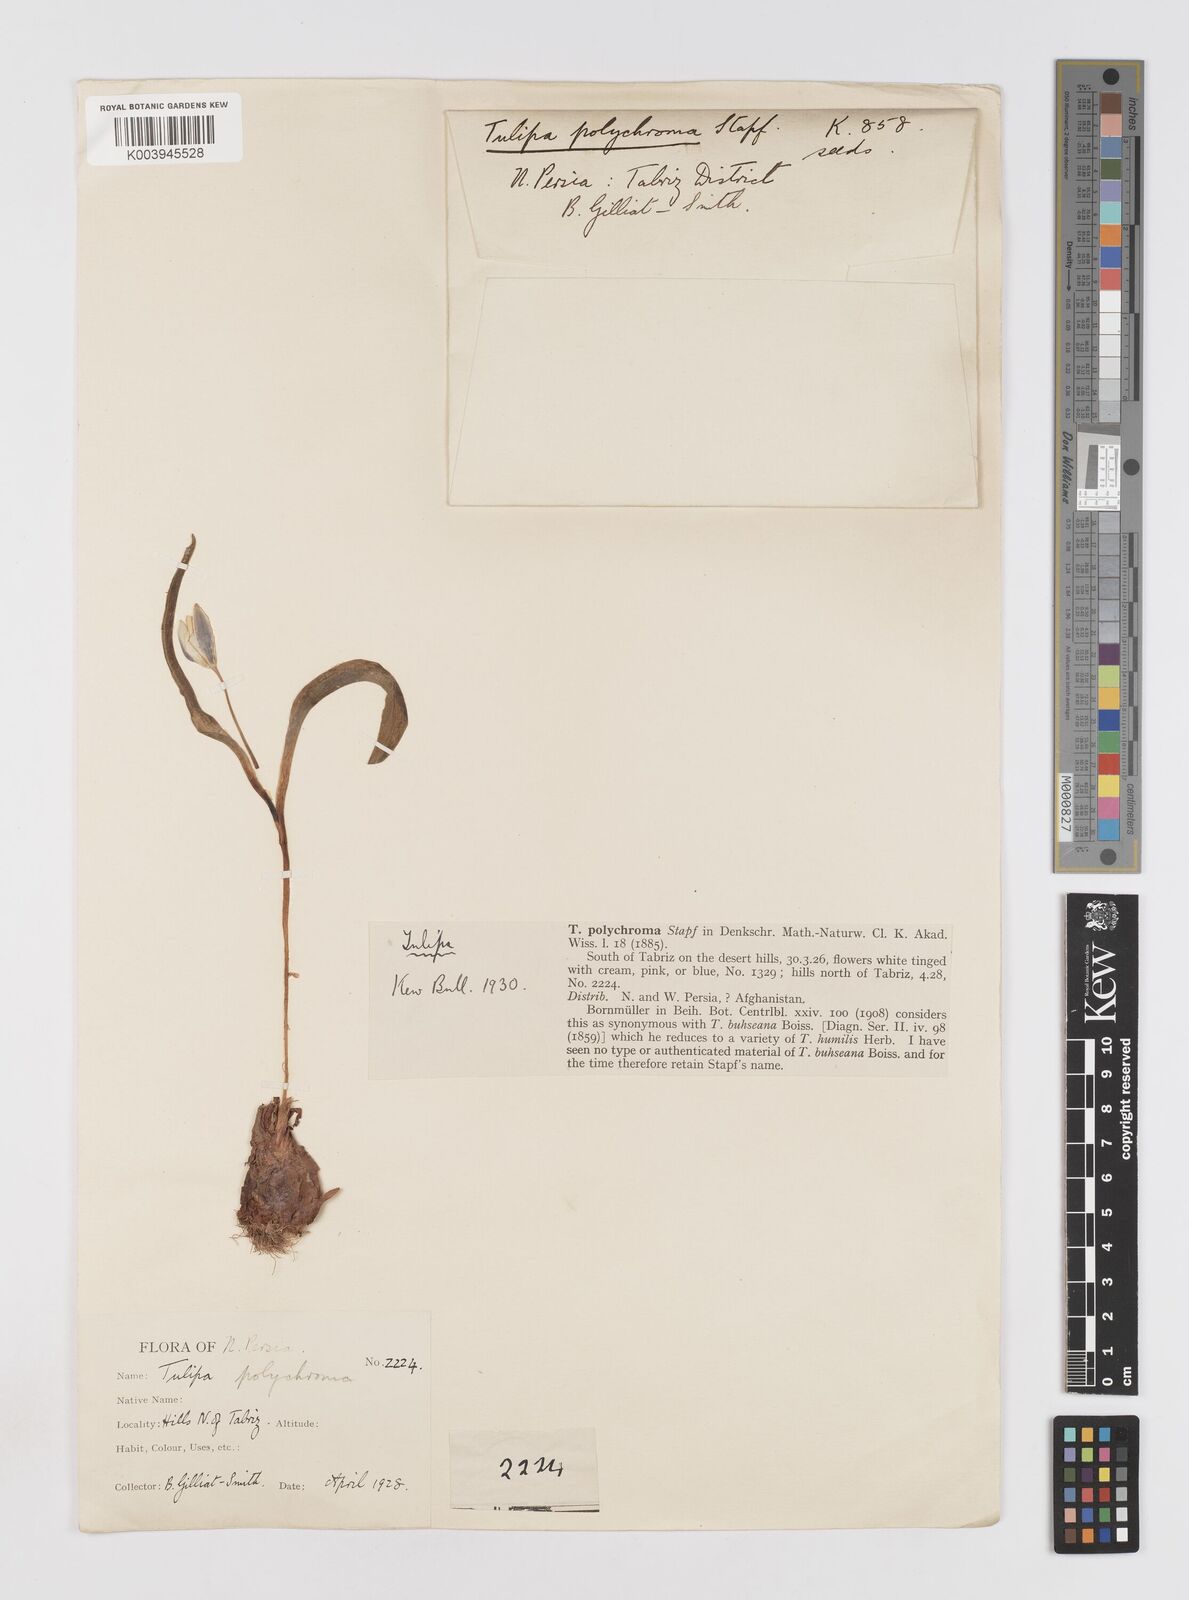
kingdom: Plantae
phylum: Tracheophyta
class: Liliopsida
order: Liliales
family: Liliaceae
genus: Tulipa
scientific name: Tulipa biflora
